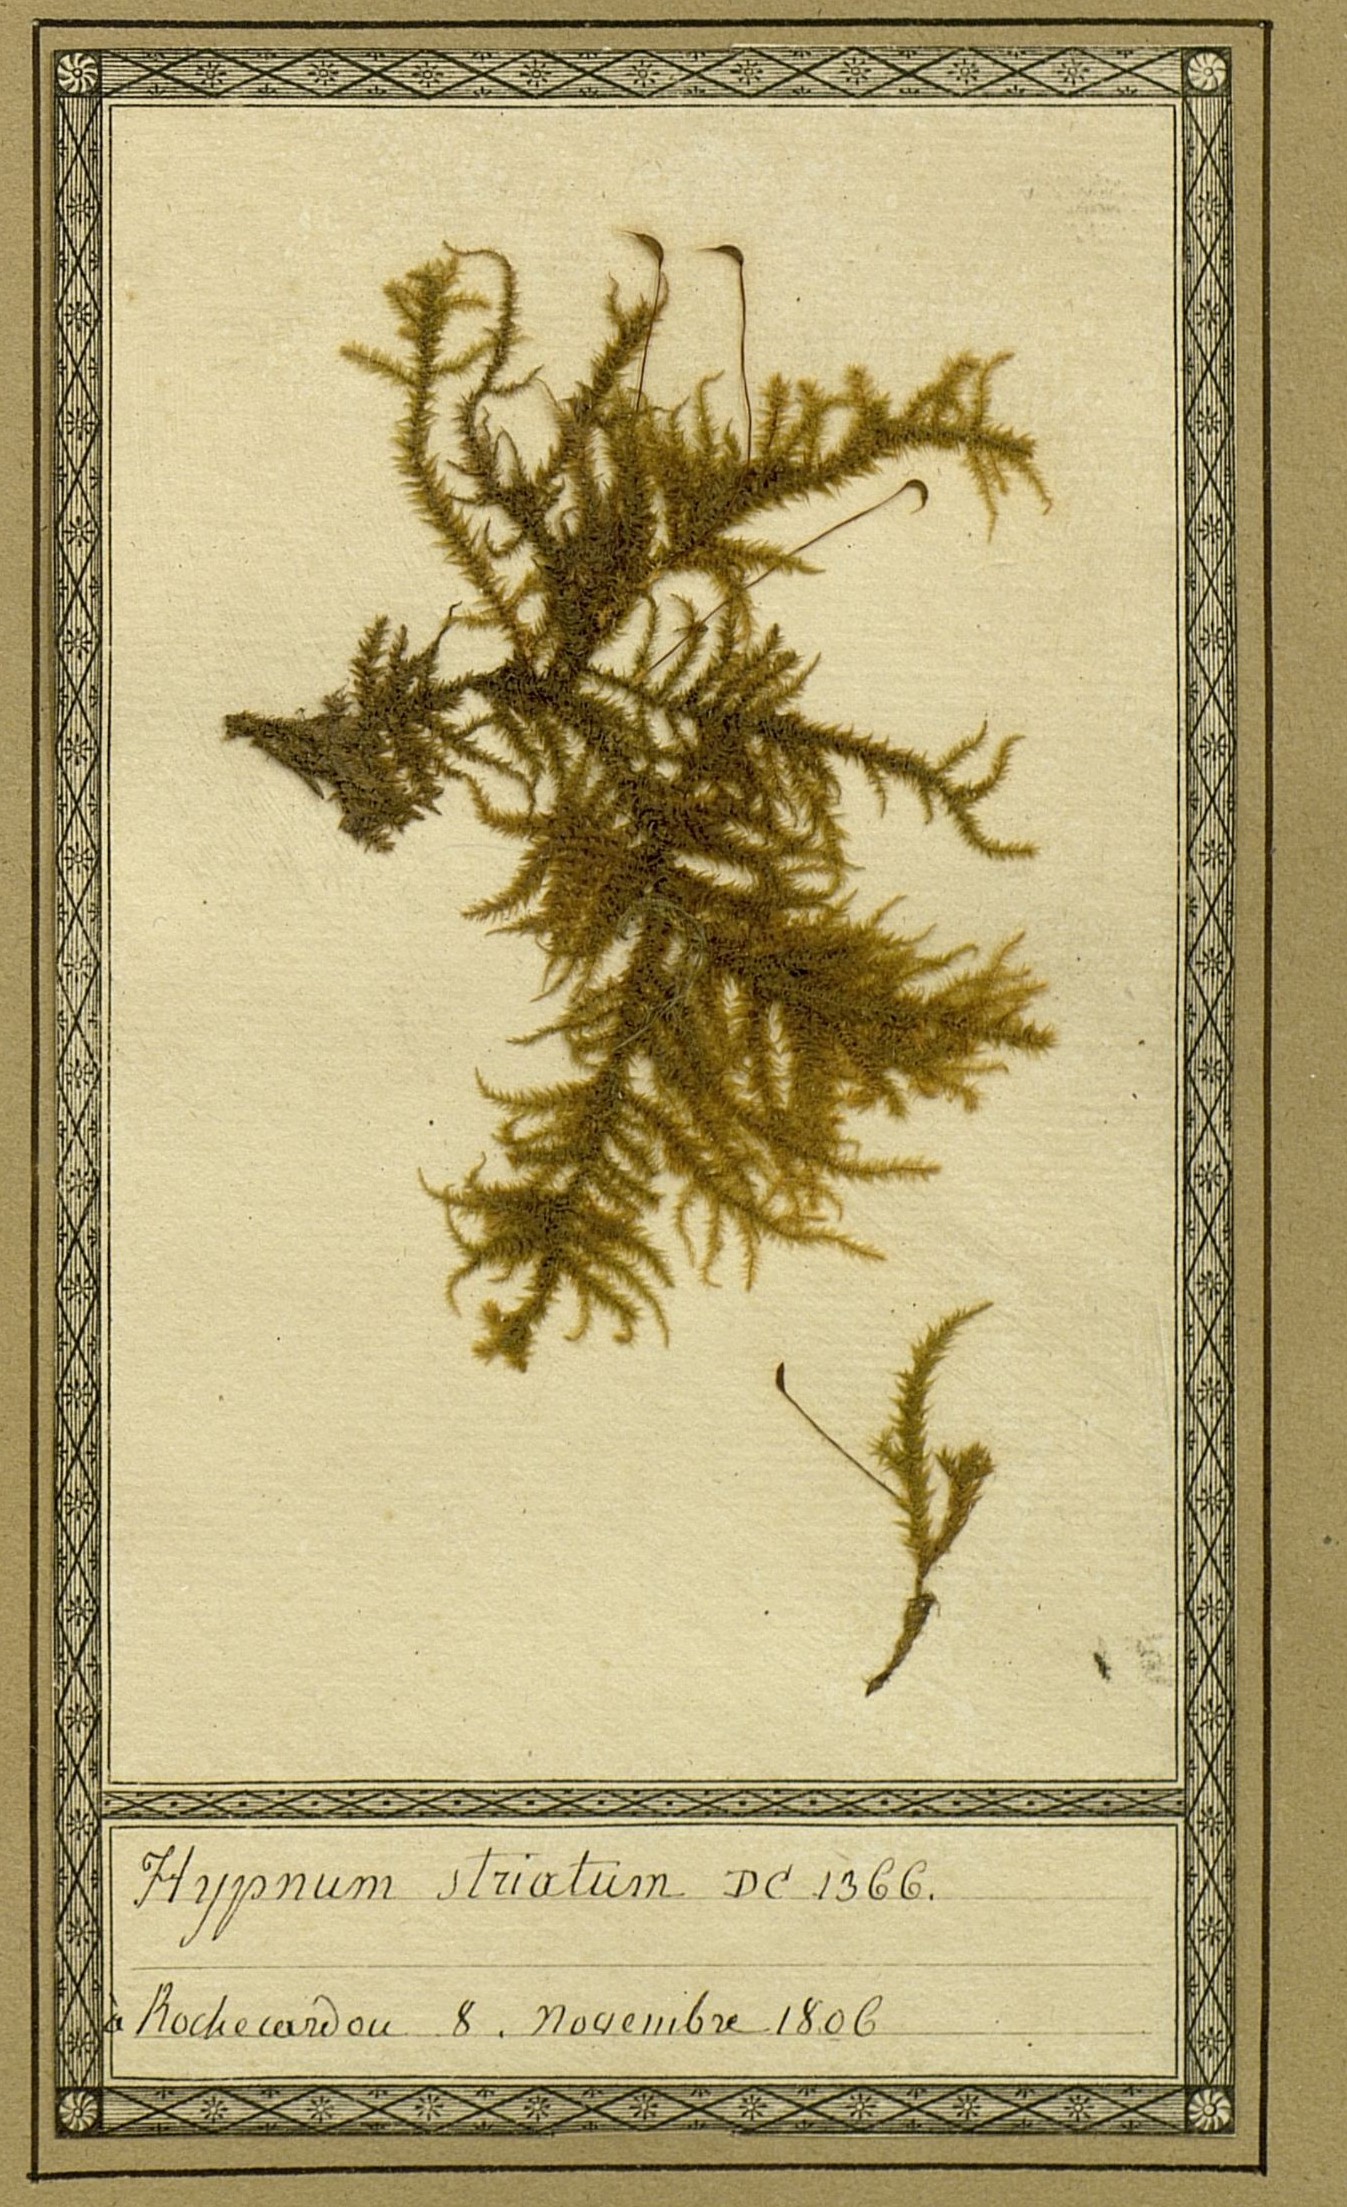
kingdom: Plantae
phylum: Bryophyta
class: Bryopsida
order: Hypnales
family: Brachytheciaceae
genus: Eurhynchium
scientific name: Eurhynchium striatum
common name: Common striated feather-moss
